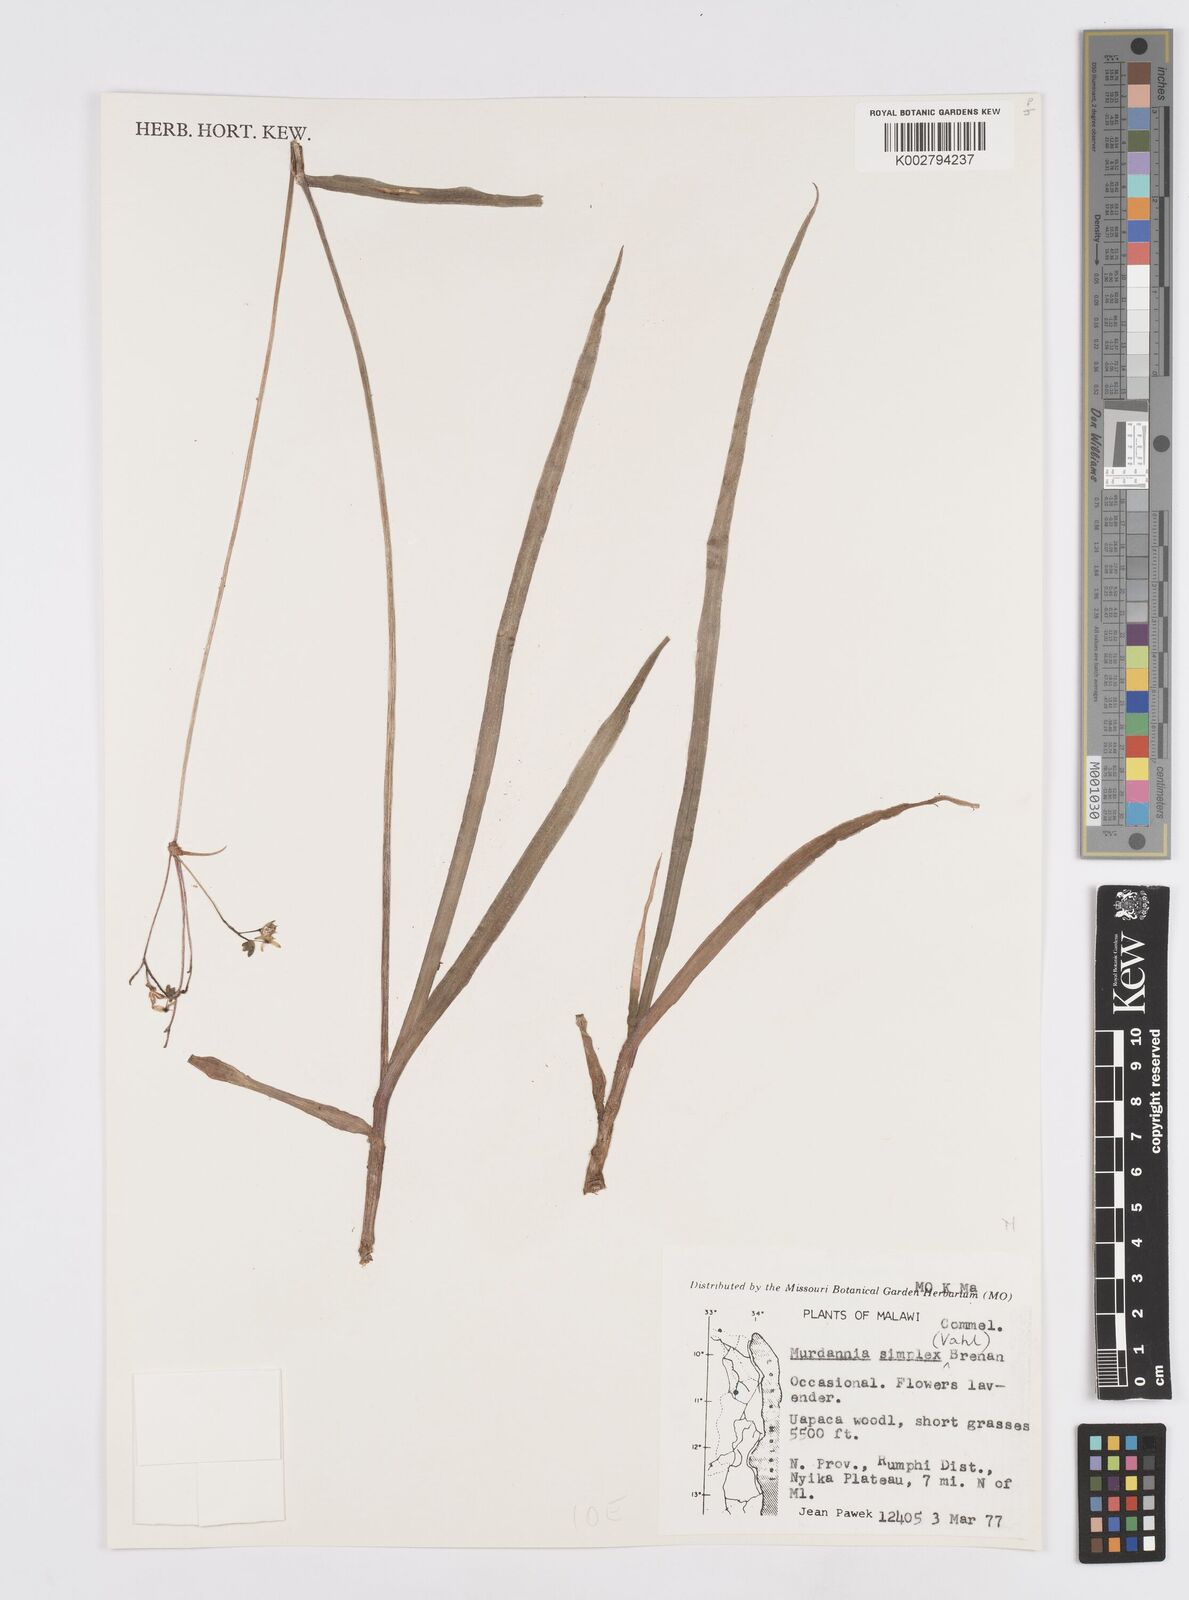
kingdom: Plantae
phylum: Tracheophyta
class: Liliopsida
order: Commelinales
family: Commelinaceae
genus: Murdannia
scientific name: Murdannia simplex
